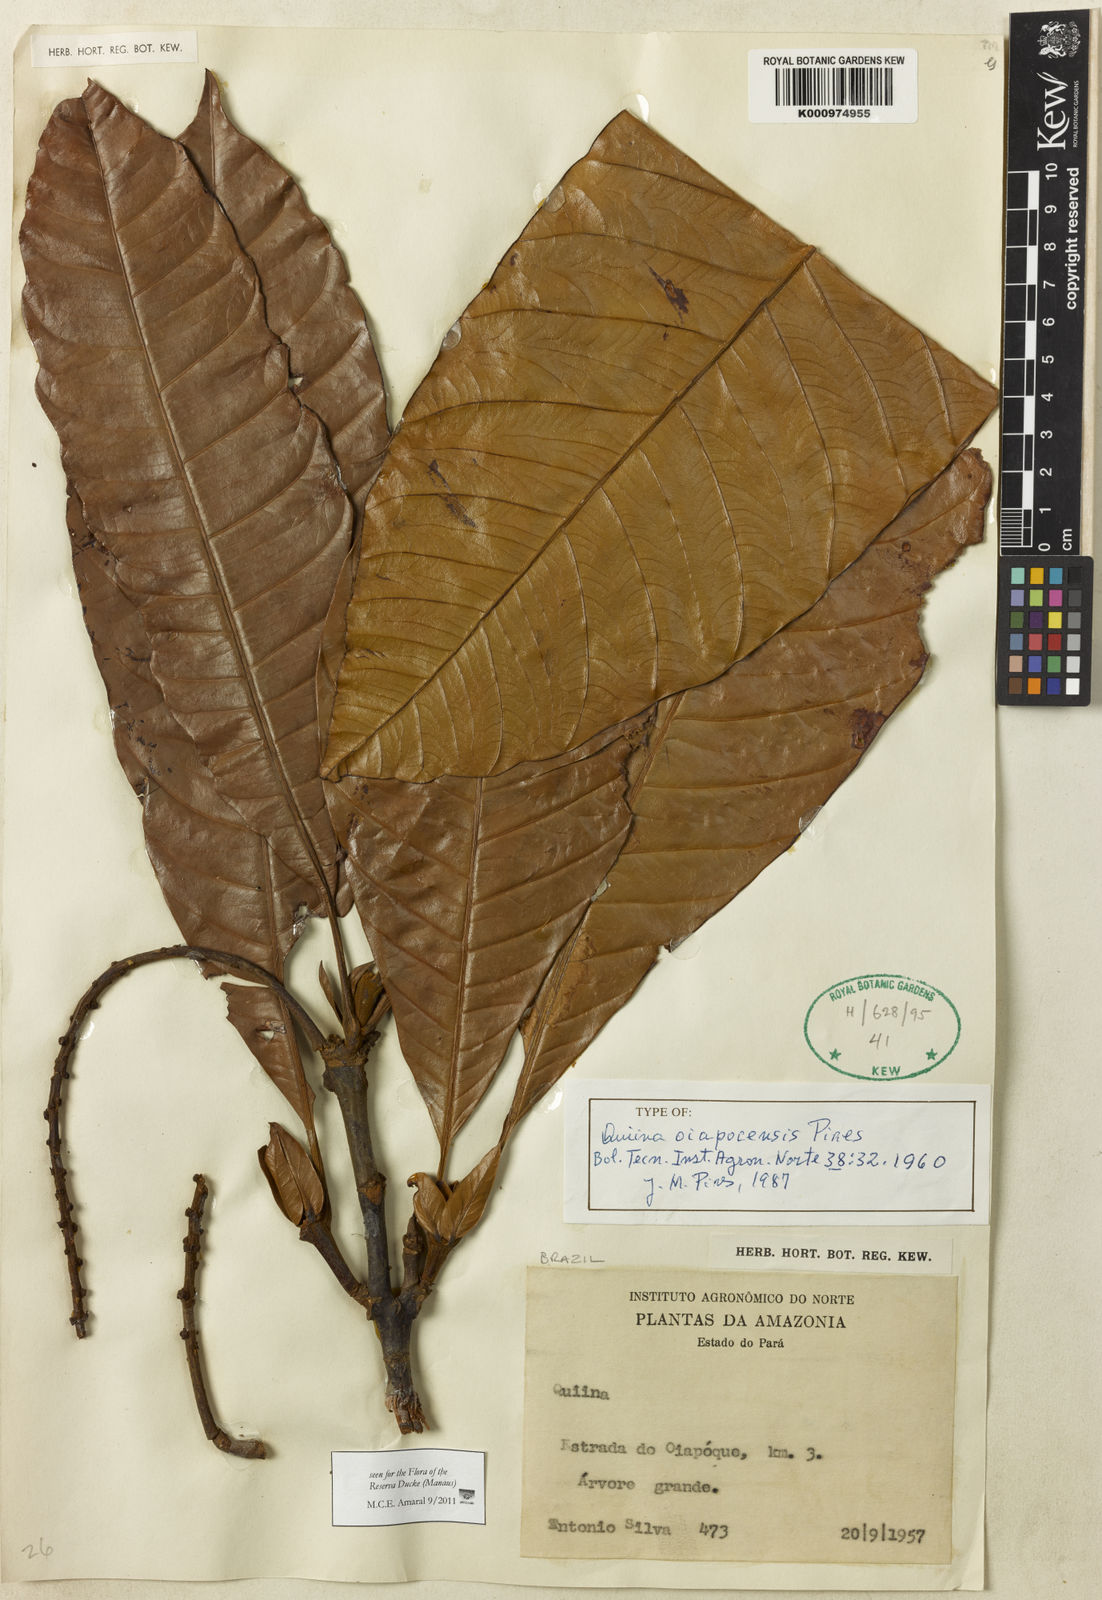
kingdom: Plantae
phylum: Tracheophyta
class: Magnoliopsida
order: Malpighiales
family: Quiinaceae
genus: Quiina
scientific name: Quiina oiapocensis
